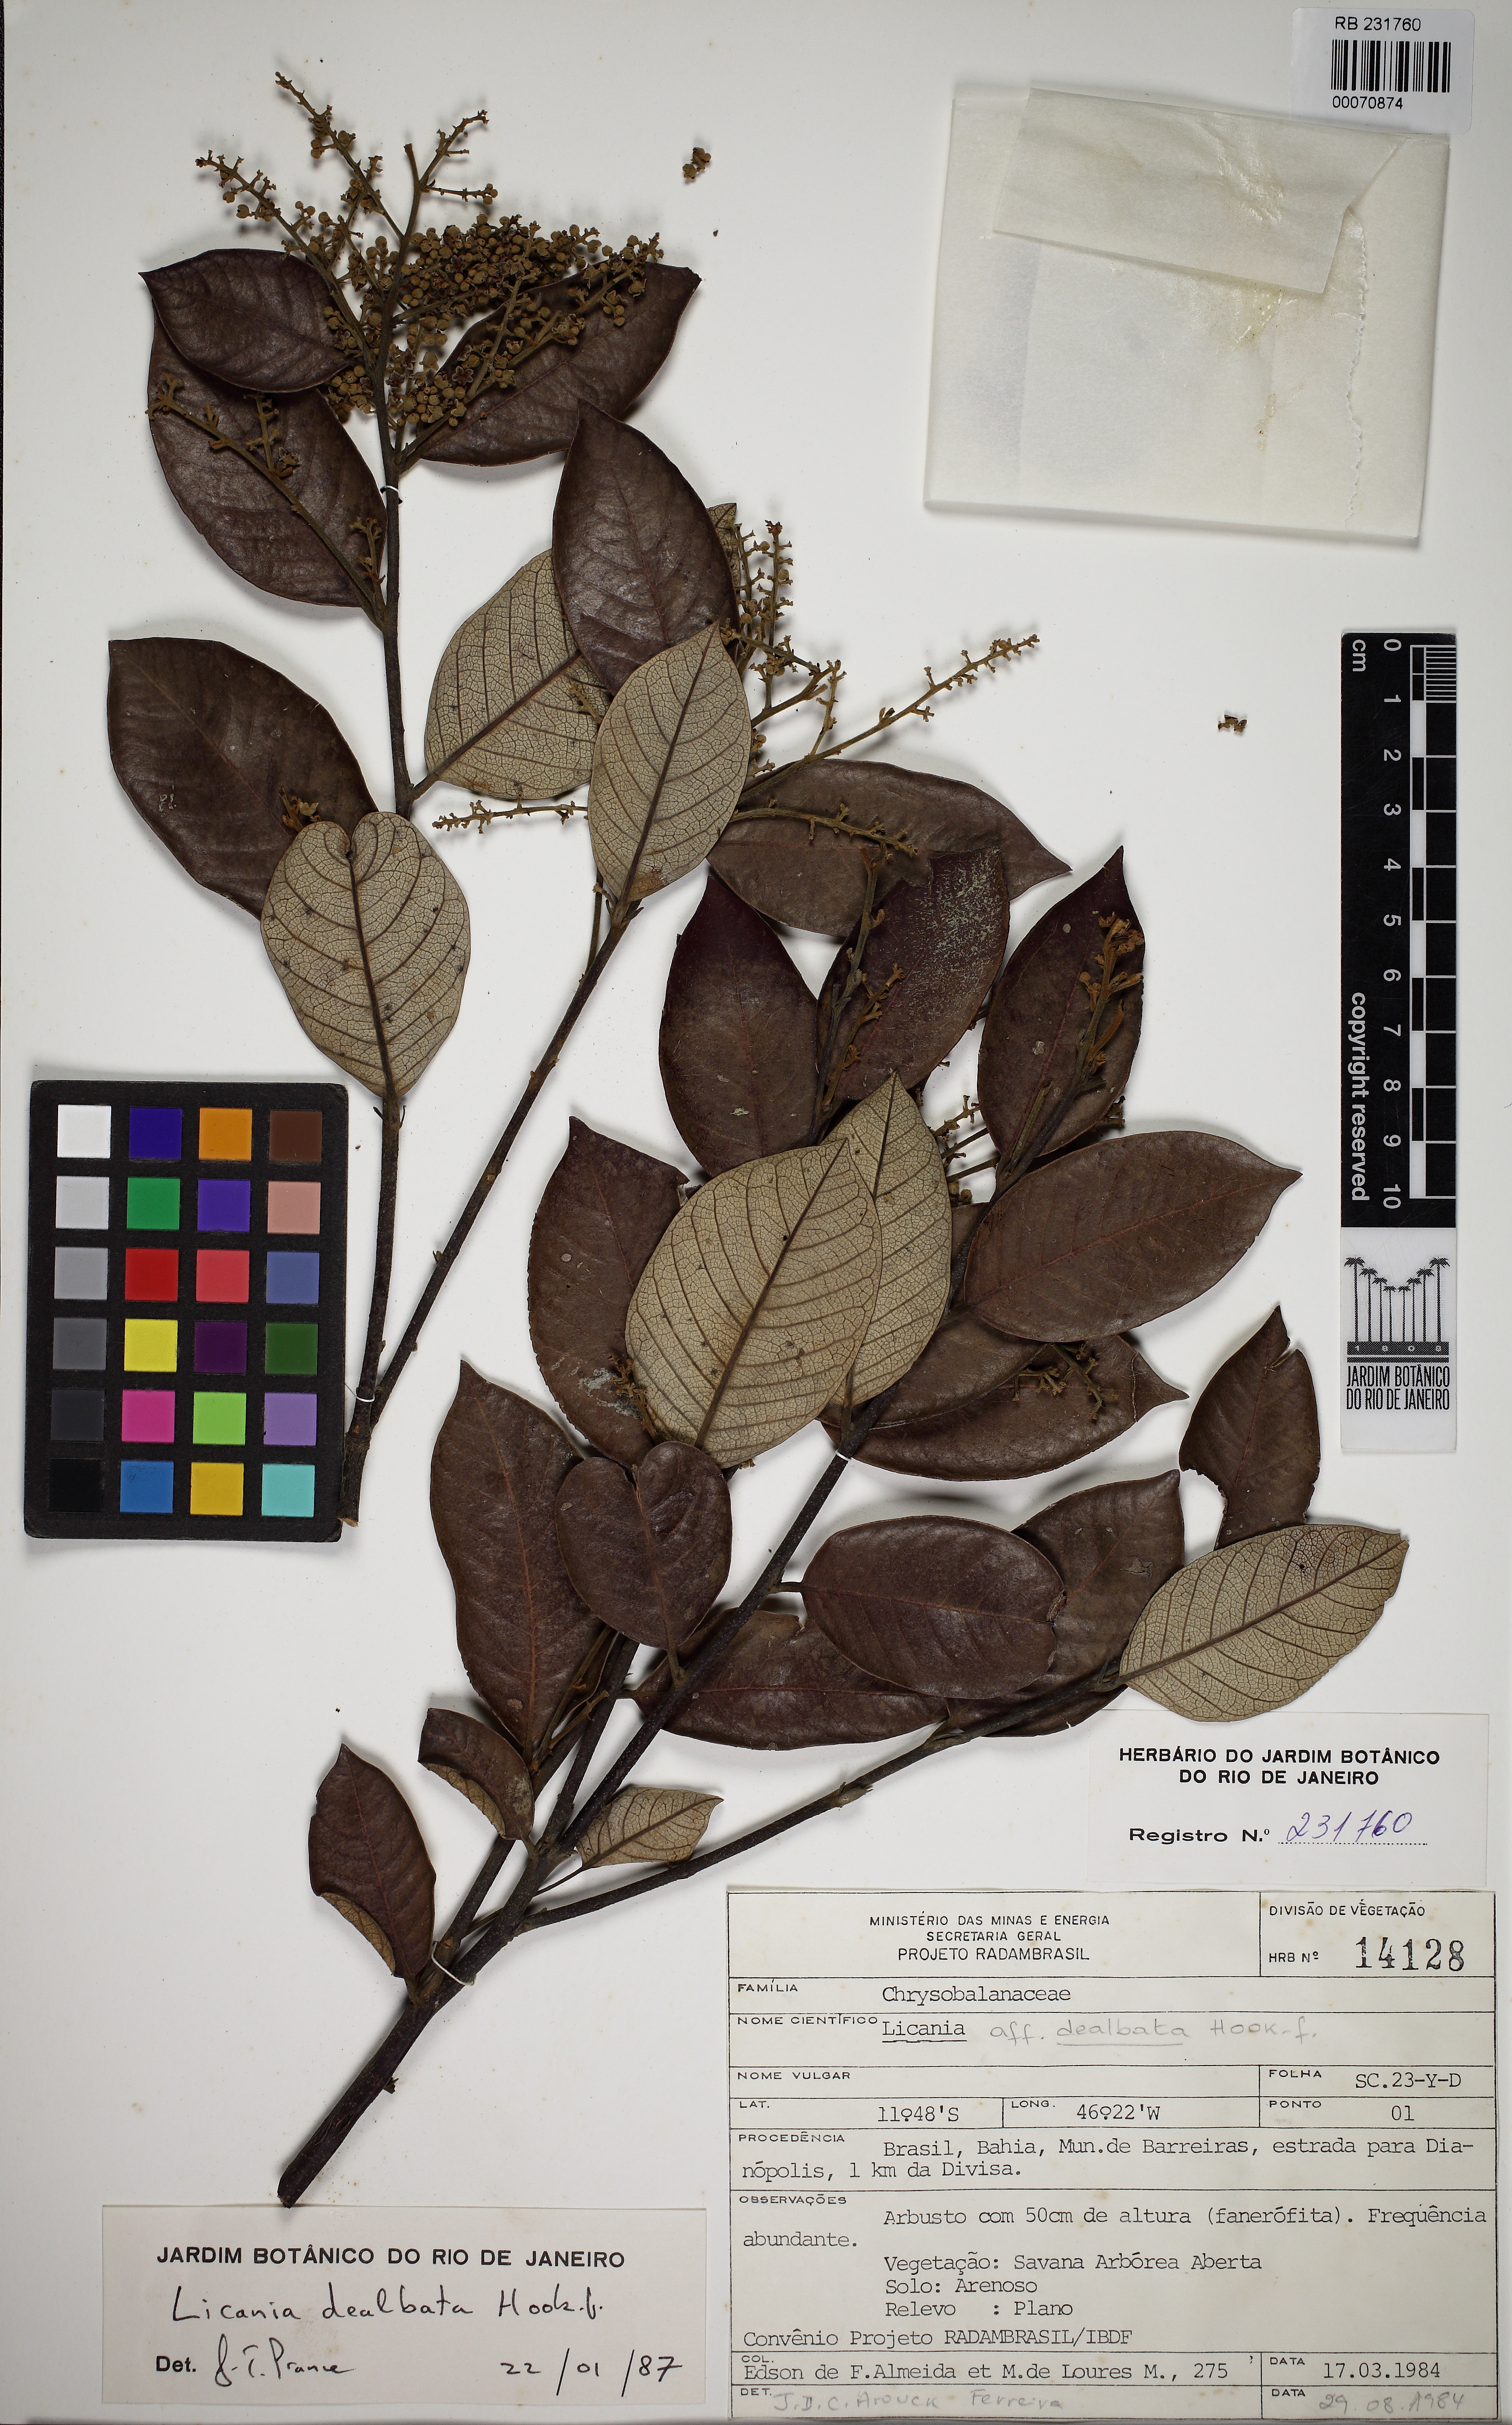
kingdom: Plantae
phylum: Tracheophyta
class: Magnoliopsida
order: Malpighiales
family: Chrysobalanaceae
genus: Licania
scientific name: Licania dealbata
